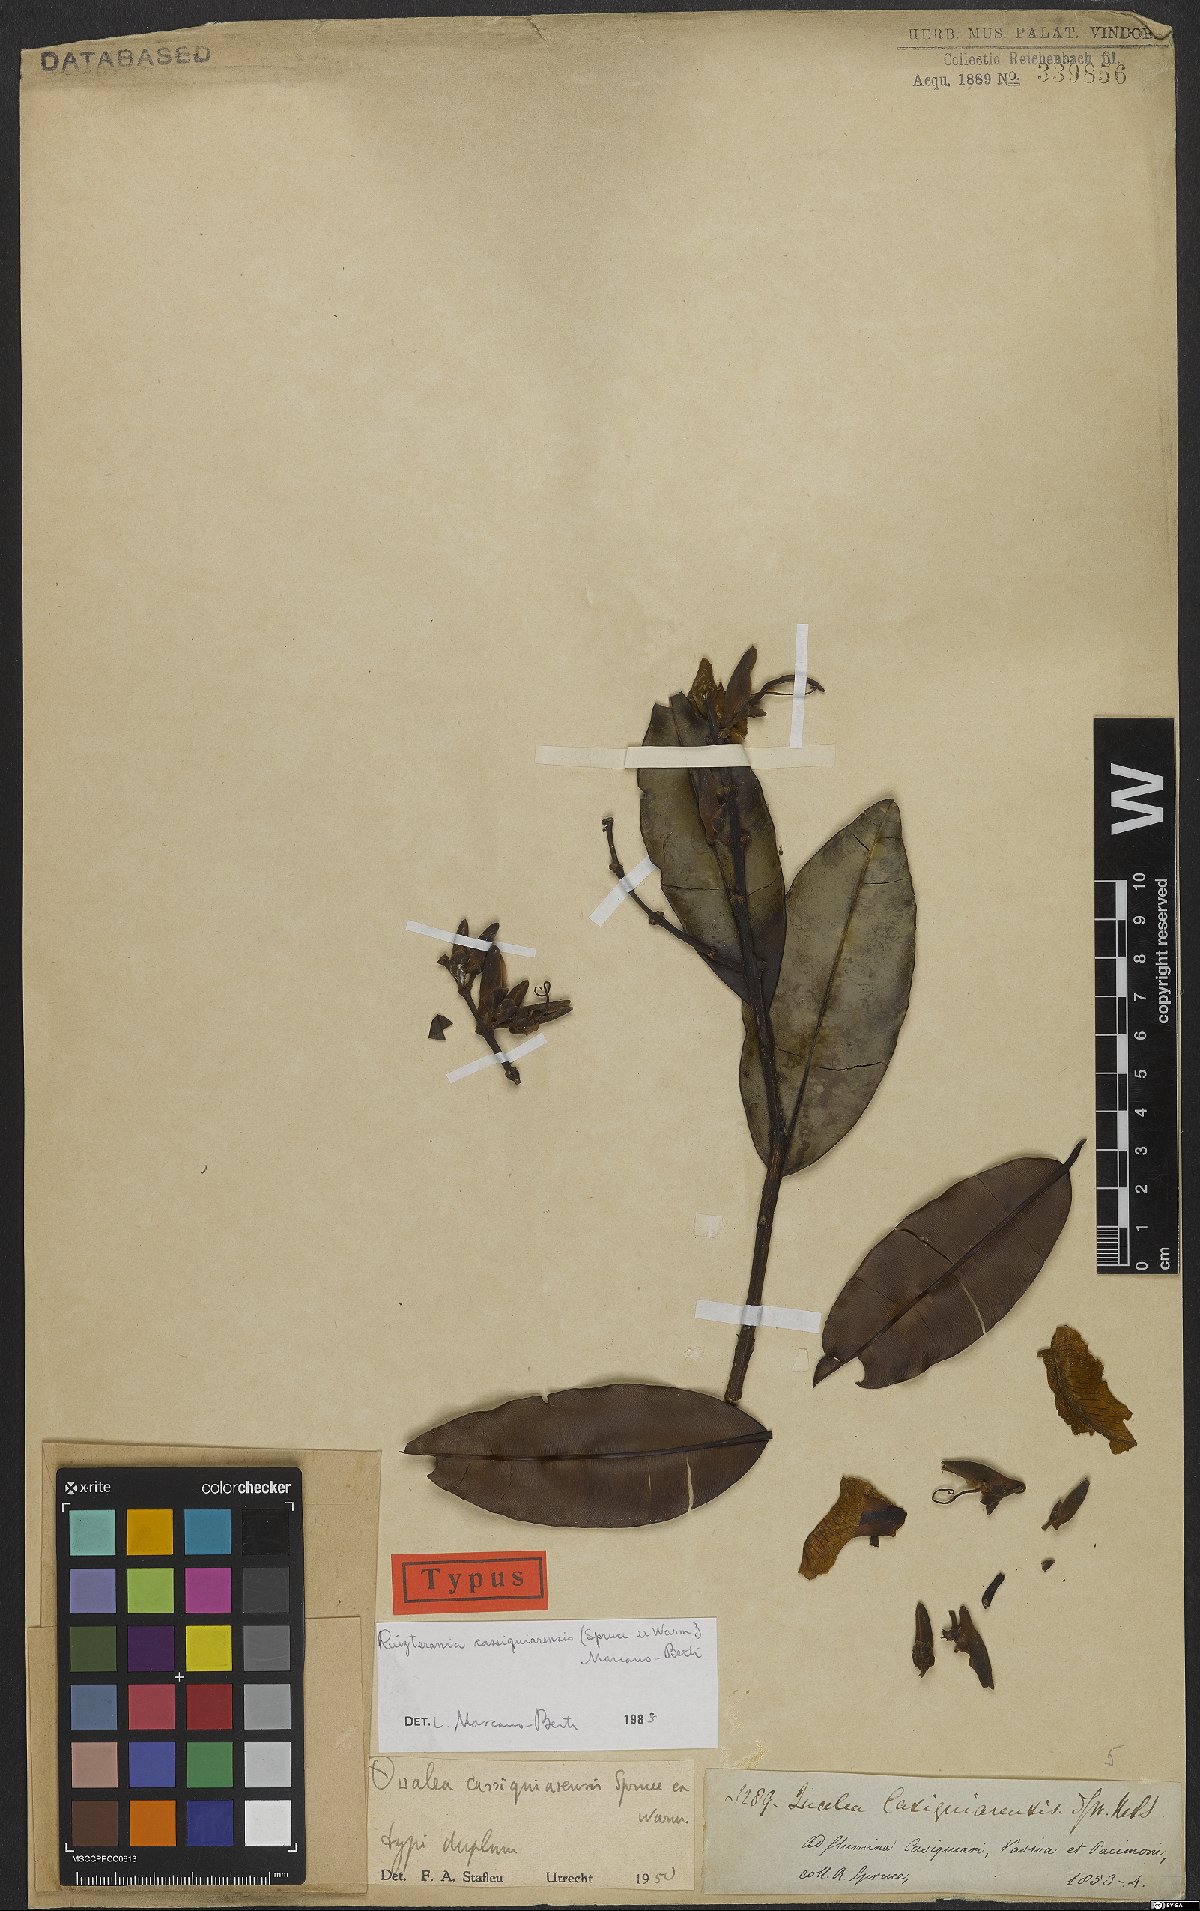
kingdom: Plantae
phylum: Tracheophyta
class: Magnoliopsida
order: Myrtales
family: Vochysiaceae
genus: Ruizterania
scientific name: Ruizterania cassiquiarensis
